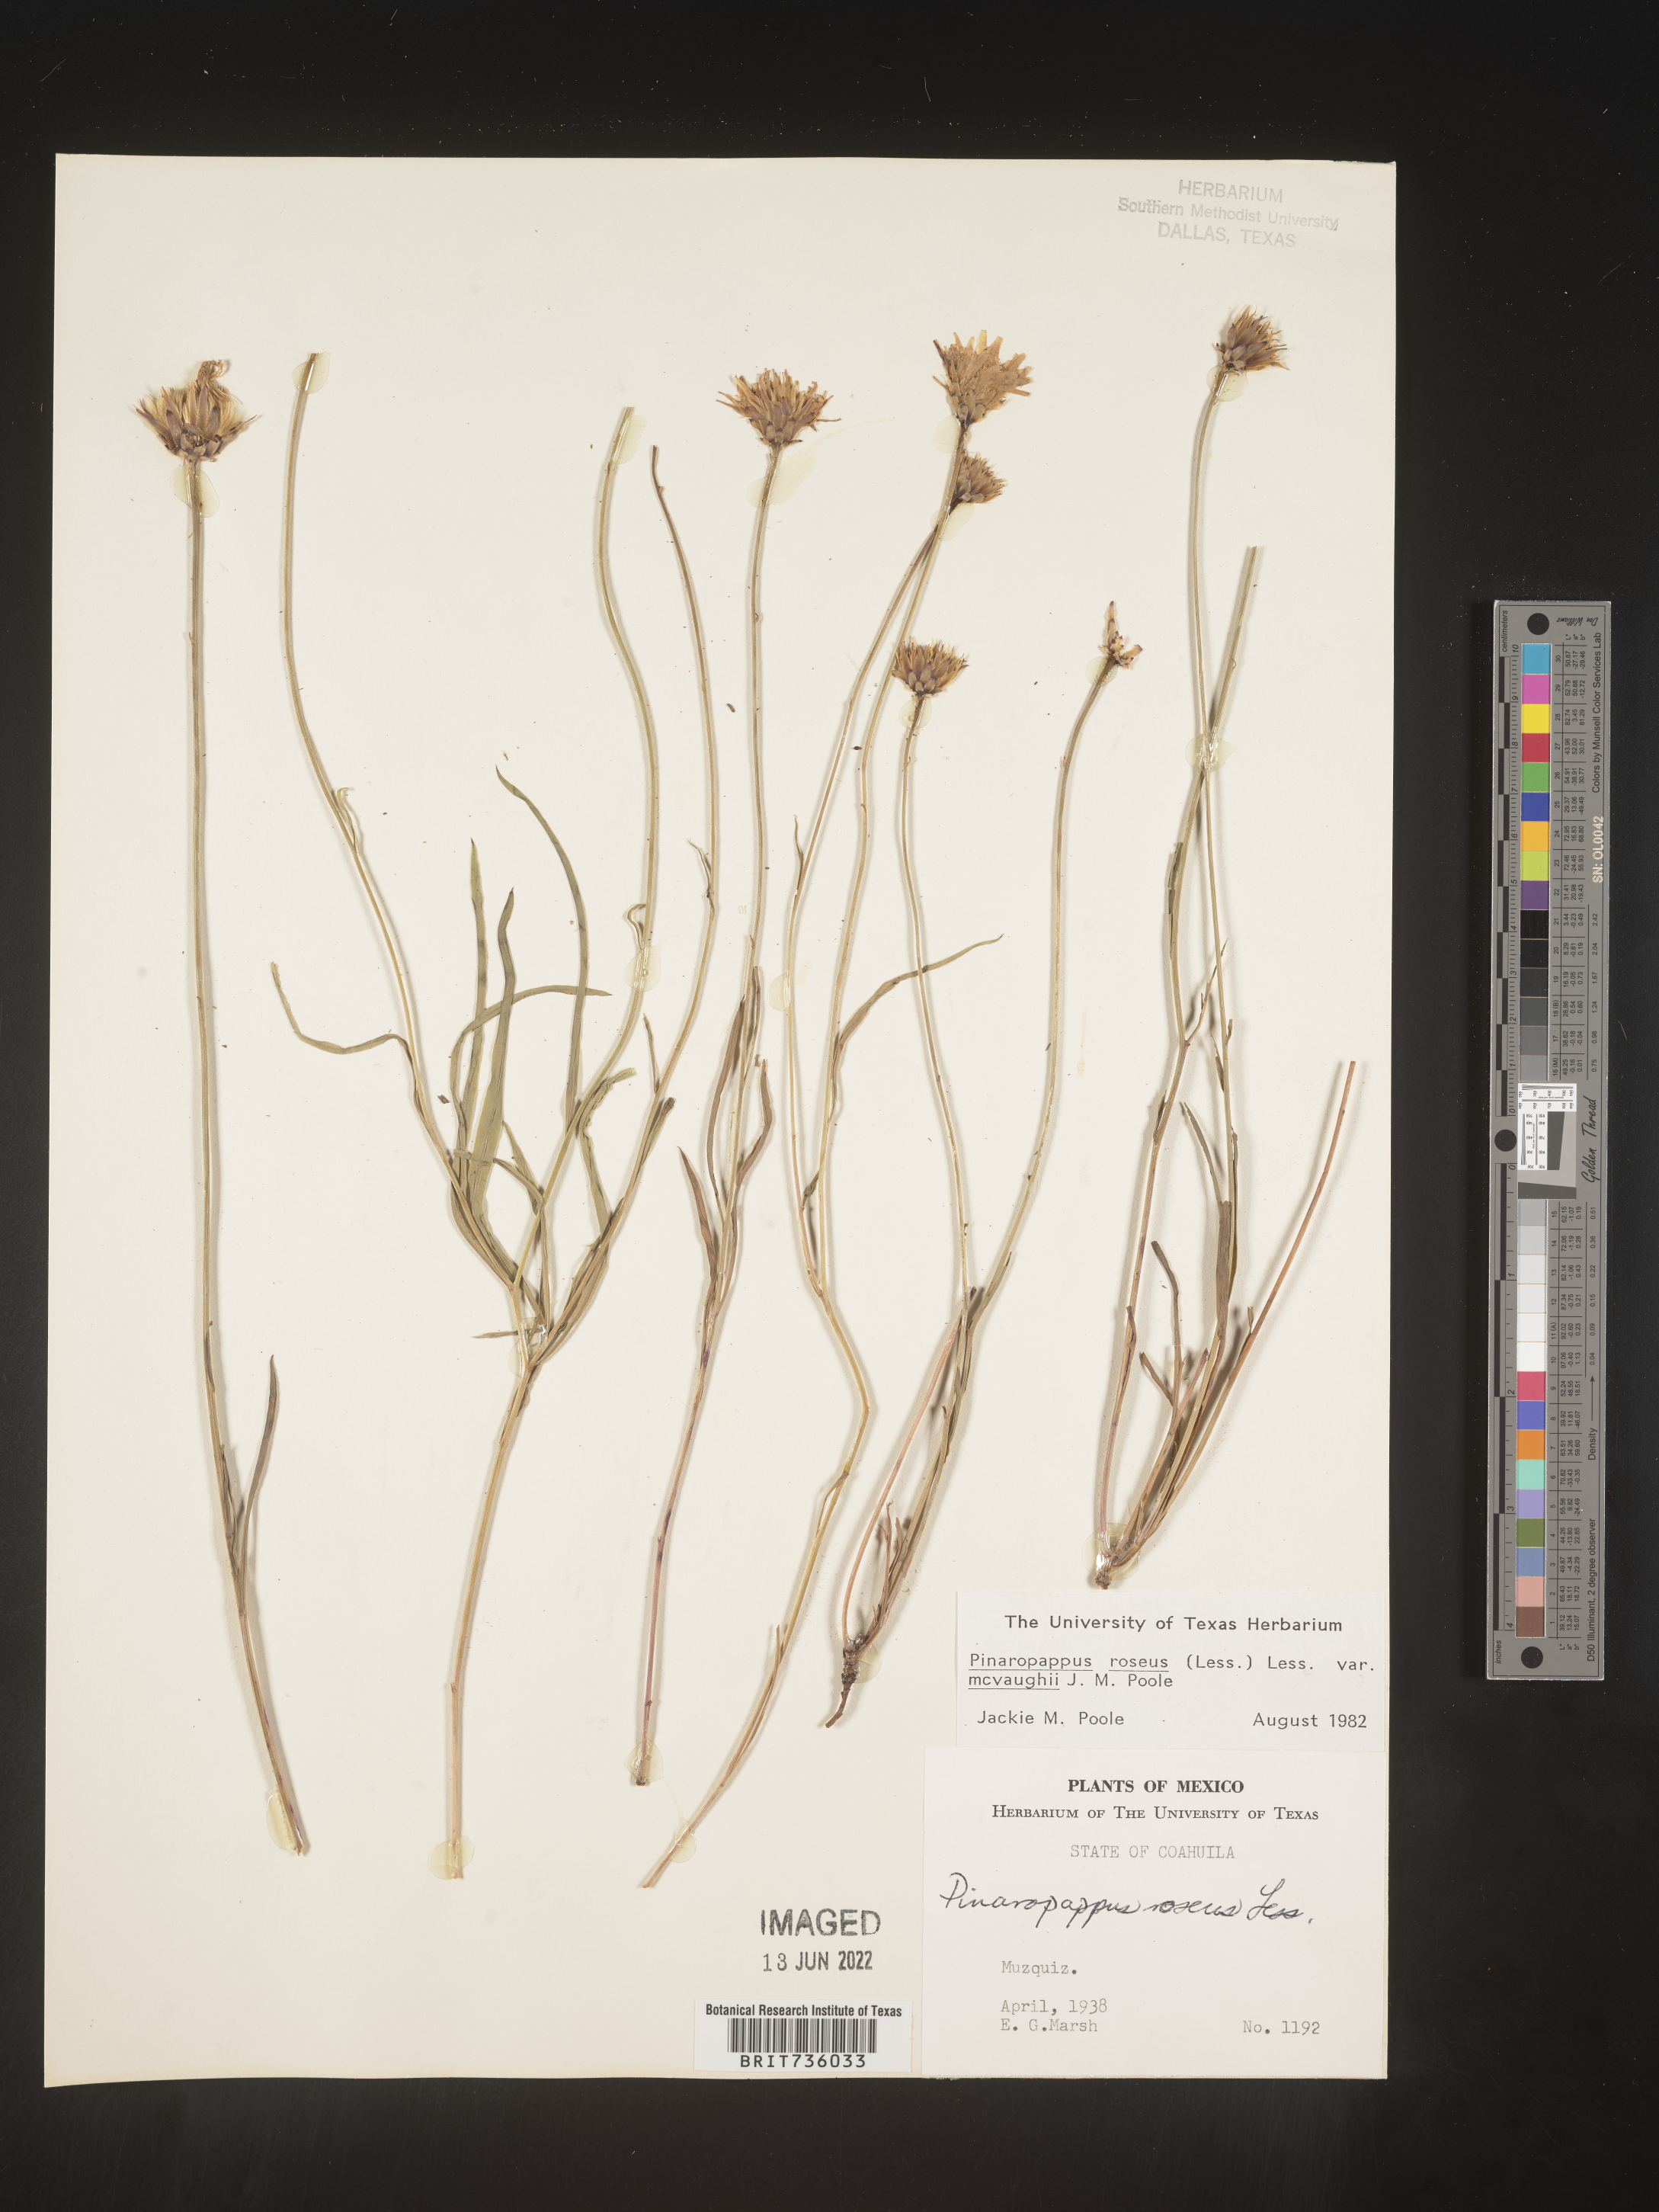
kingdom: Plantae
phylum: Tracheophyta
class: Magnoliopsida
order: Asterales
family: Asteraceae
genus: Pinaropappus
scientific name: Pinaropappus
